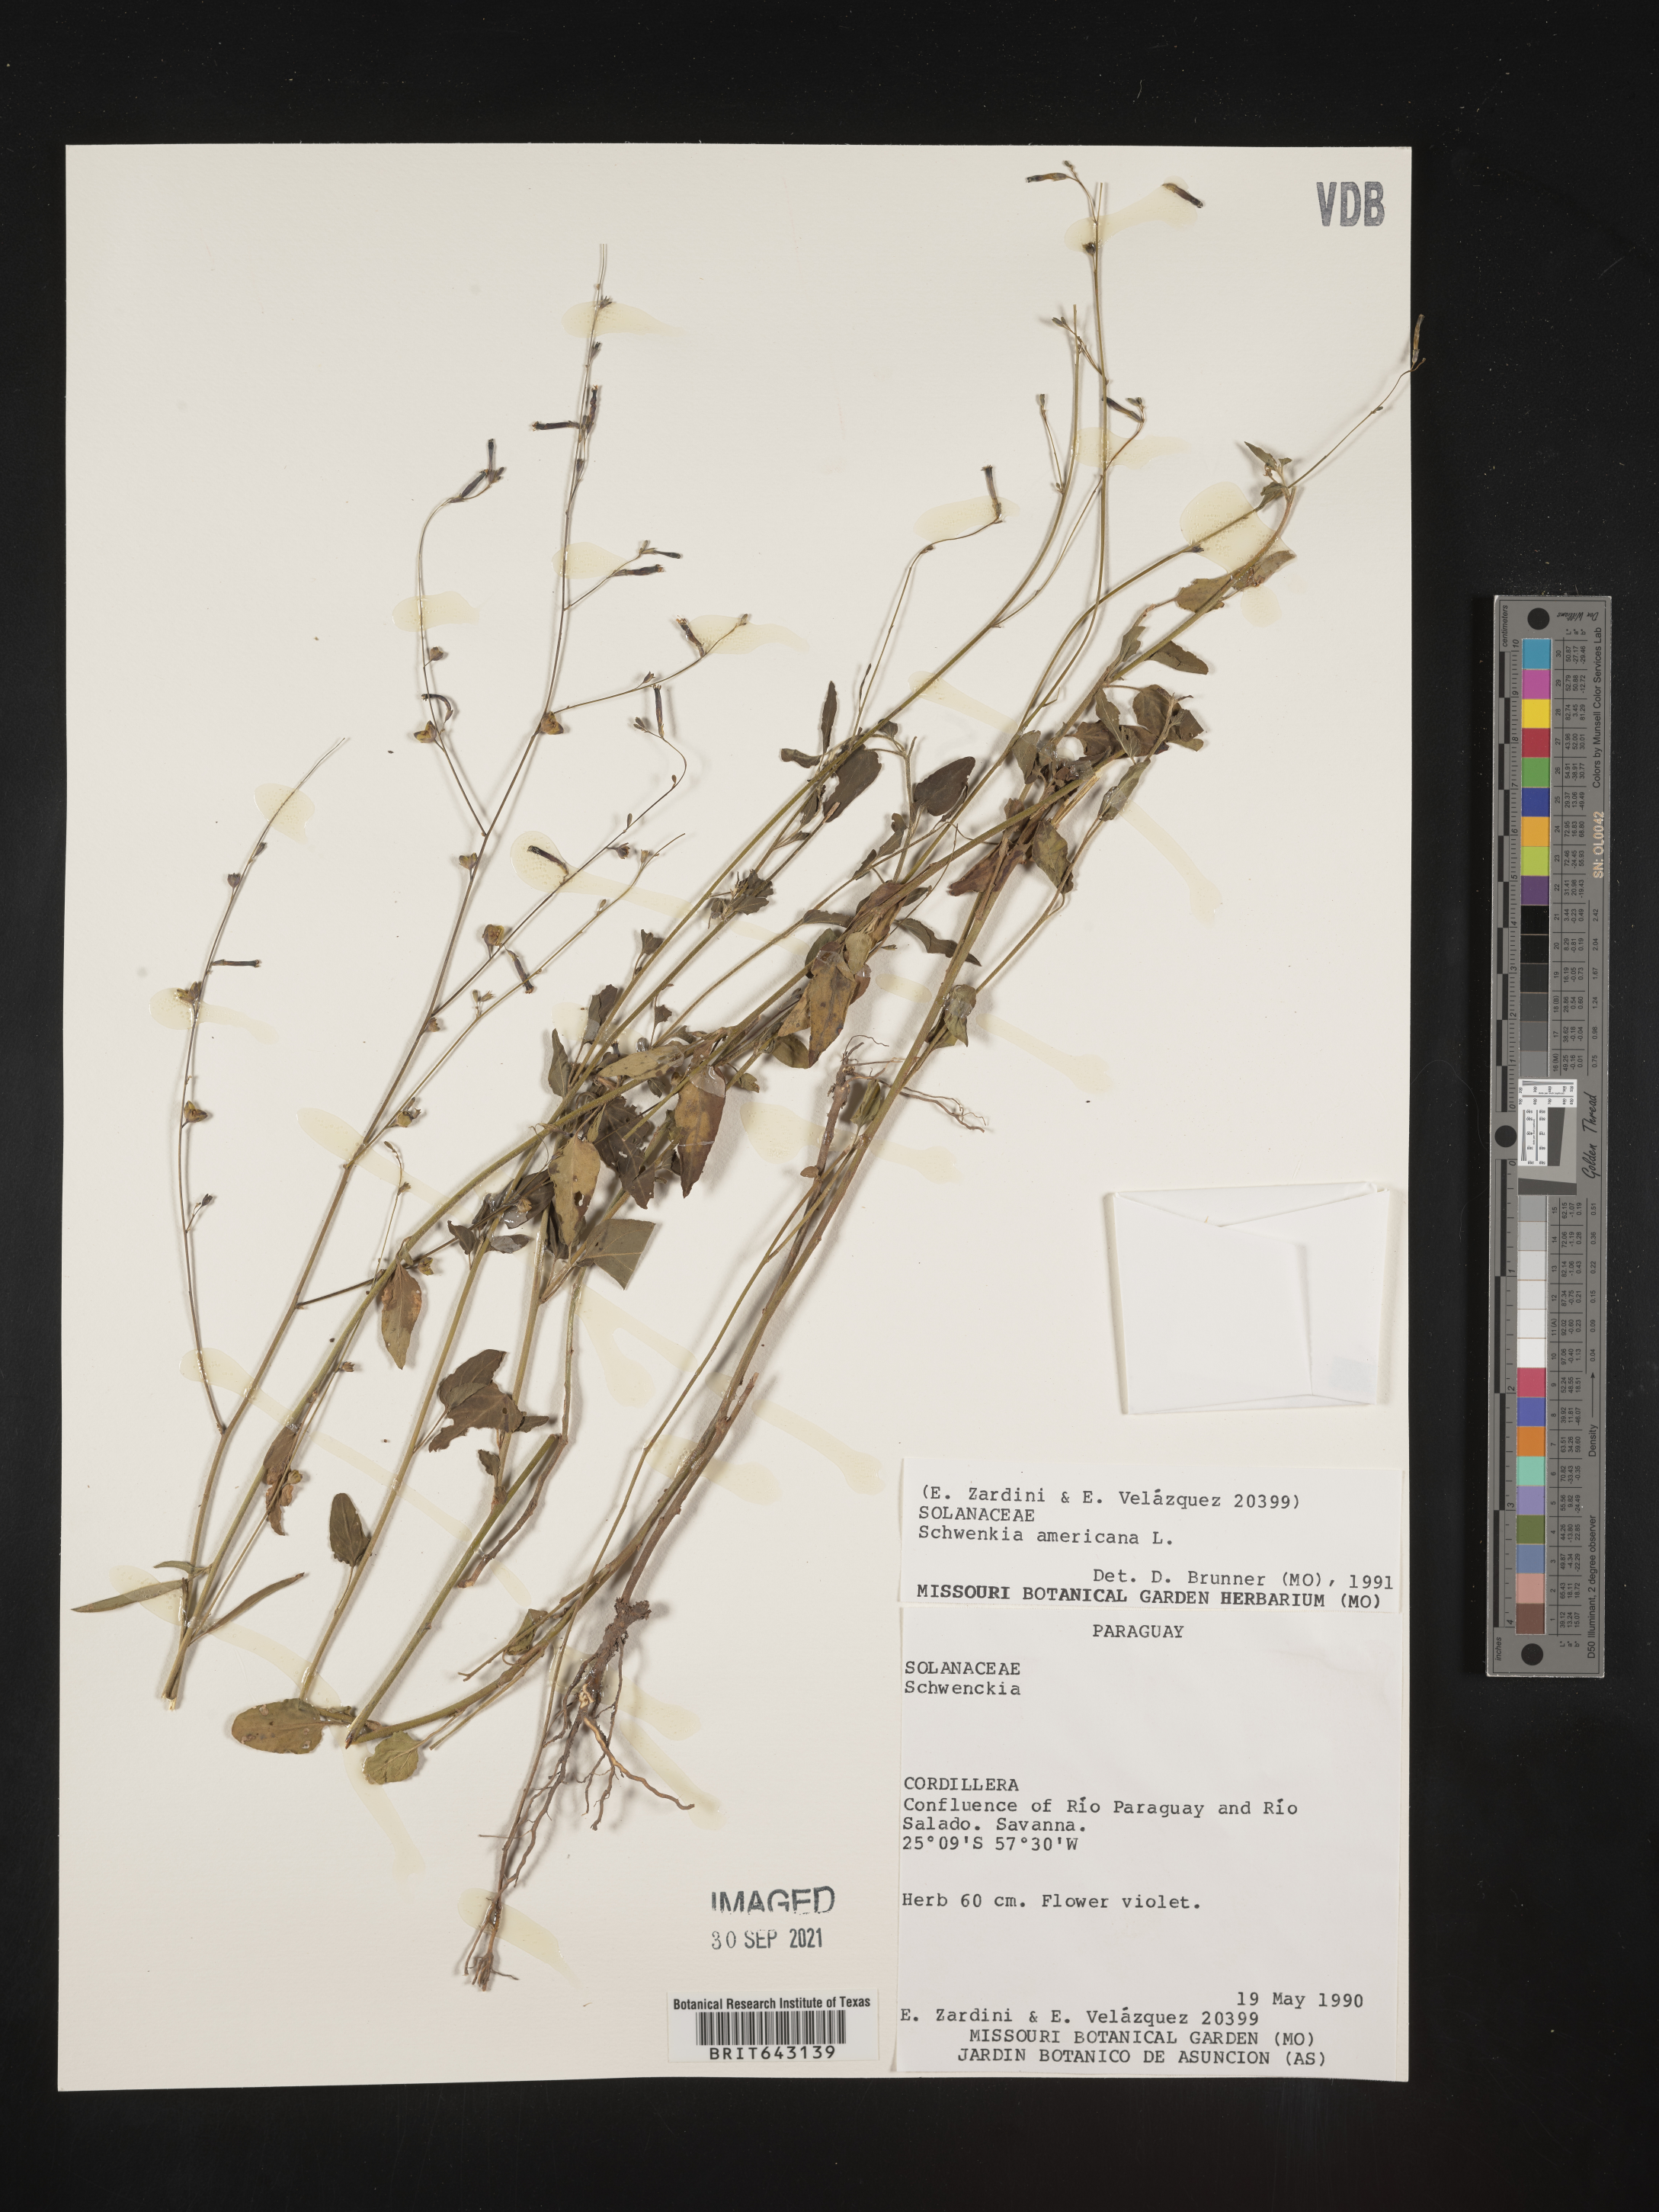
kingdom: Plantae
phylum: Tracheophyta
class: Magnoliopsida
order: Solanales
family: Solanaceae
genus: Schwenckia
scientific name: Schwenckia
